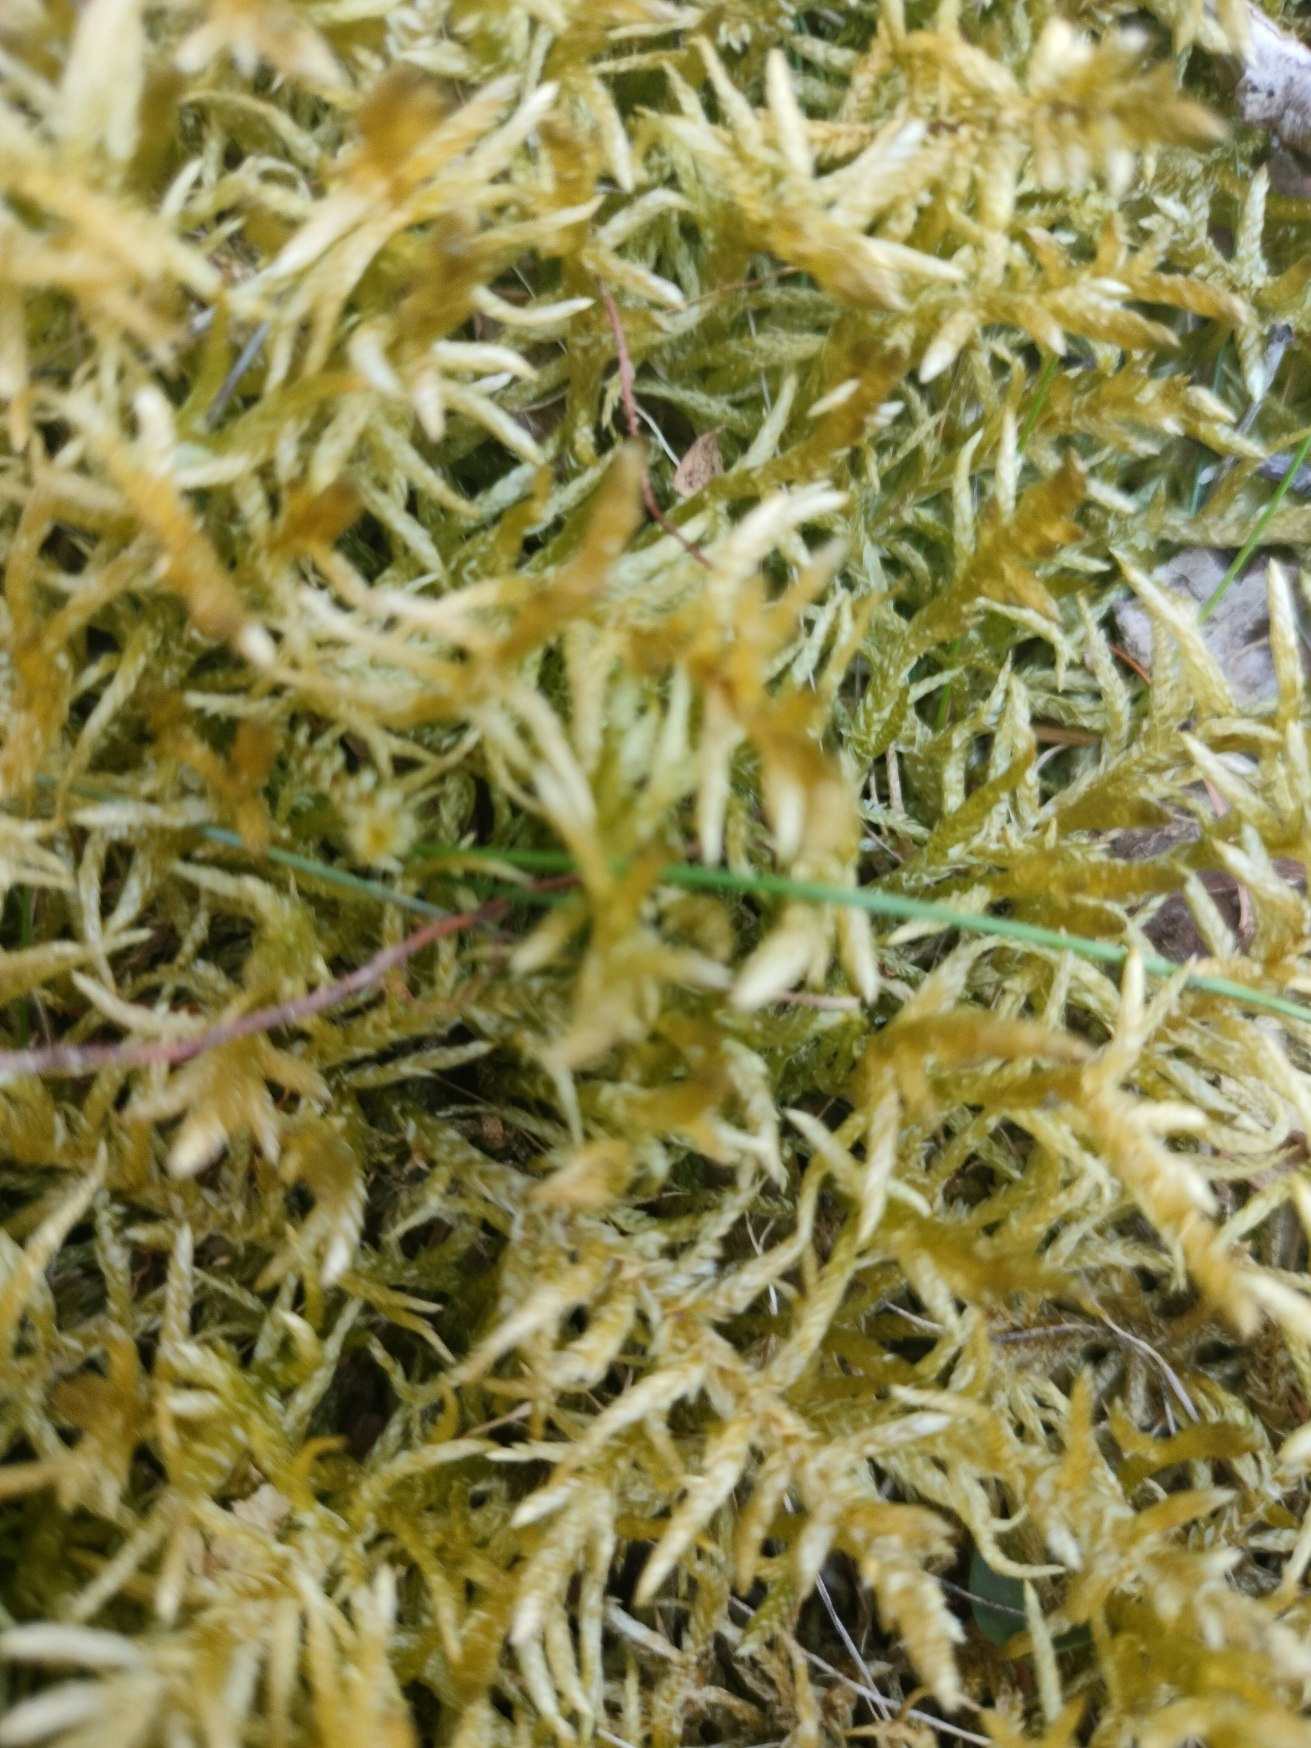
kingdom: Plantae
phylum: Bryophyta
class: Bryopsida
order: Hypnales
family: Brachytheciaceae
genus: Pseudoscleropodium
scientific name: Pseudoscleropodium purum
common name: Hulbladet fedtmos
